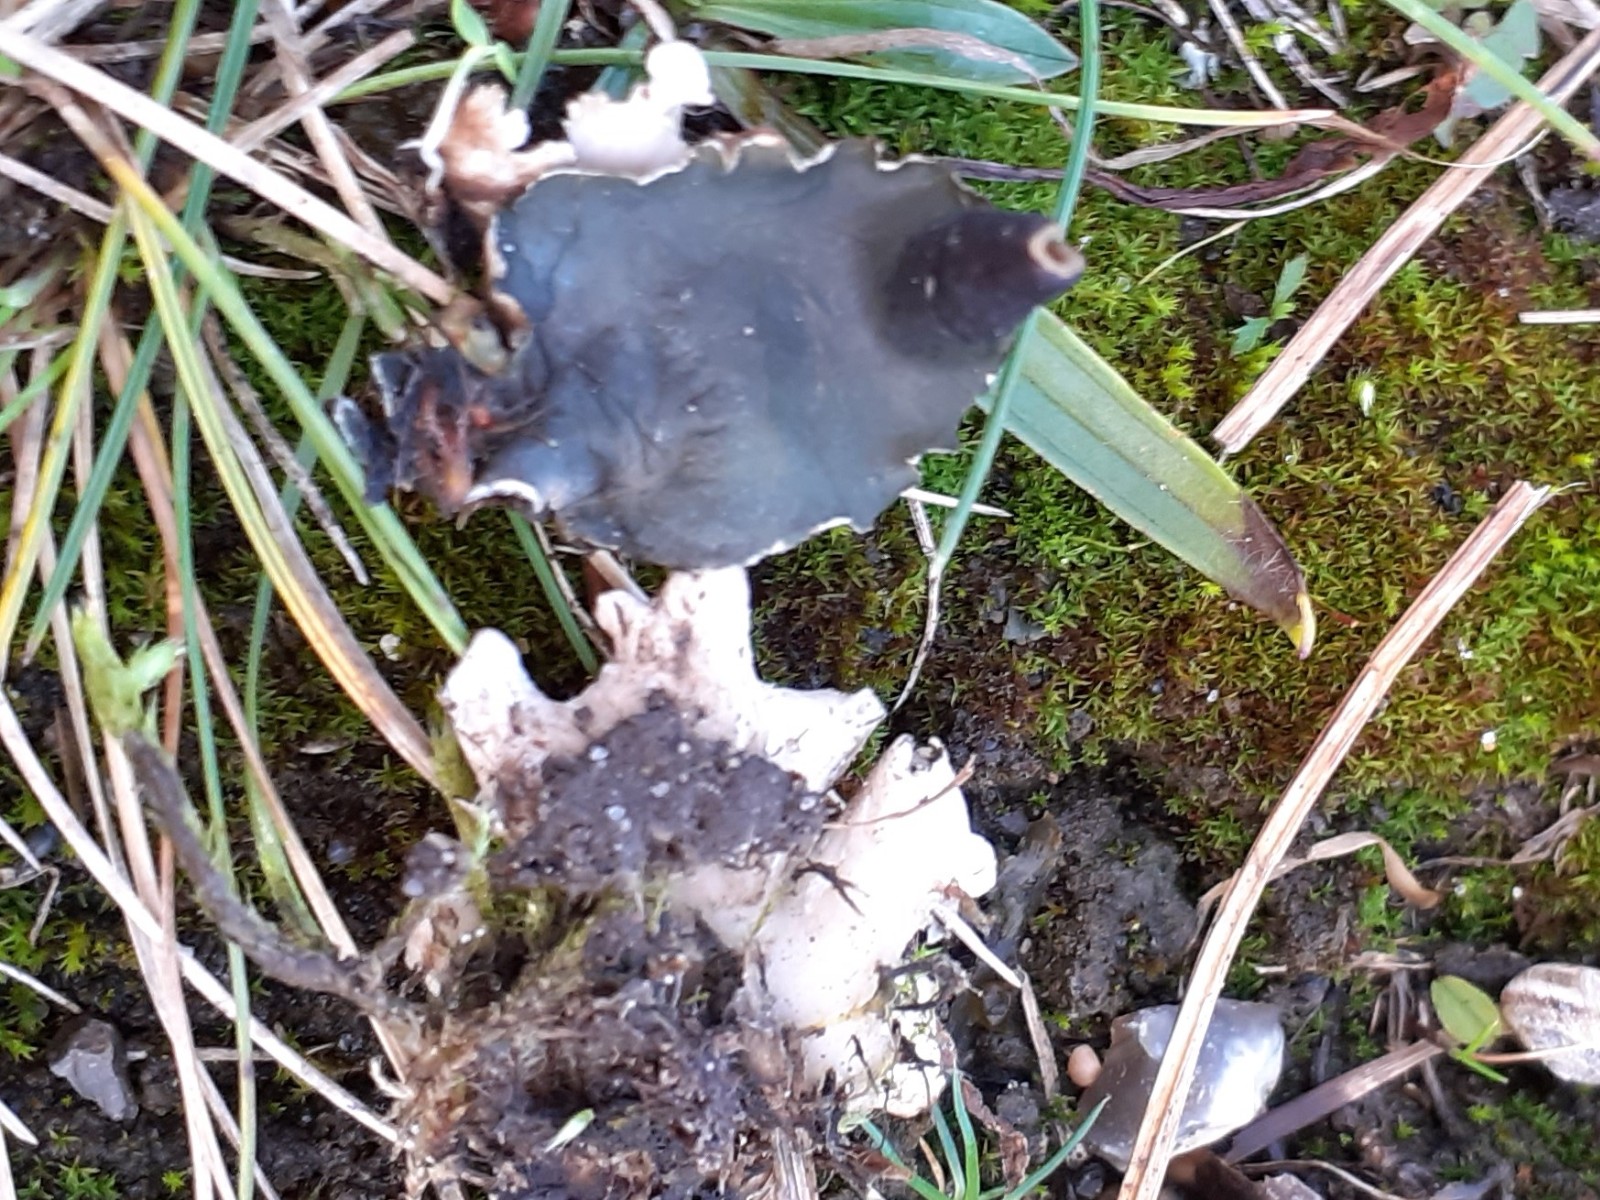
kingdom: Fungi
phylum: Ascomycota
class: Lecanoromycetes
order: Peltigerales
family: Peltigeraceae
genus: Peltigera
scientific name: Peltigera neckeri
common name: glinsende skjoldlav
